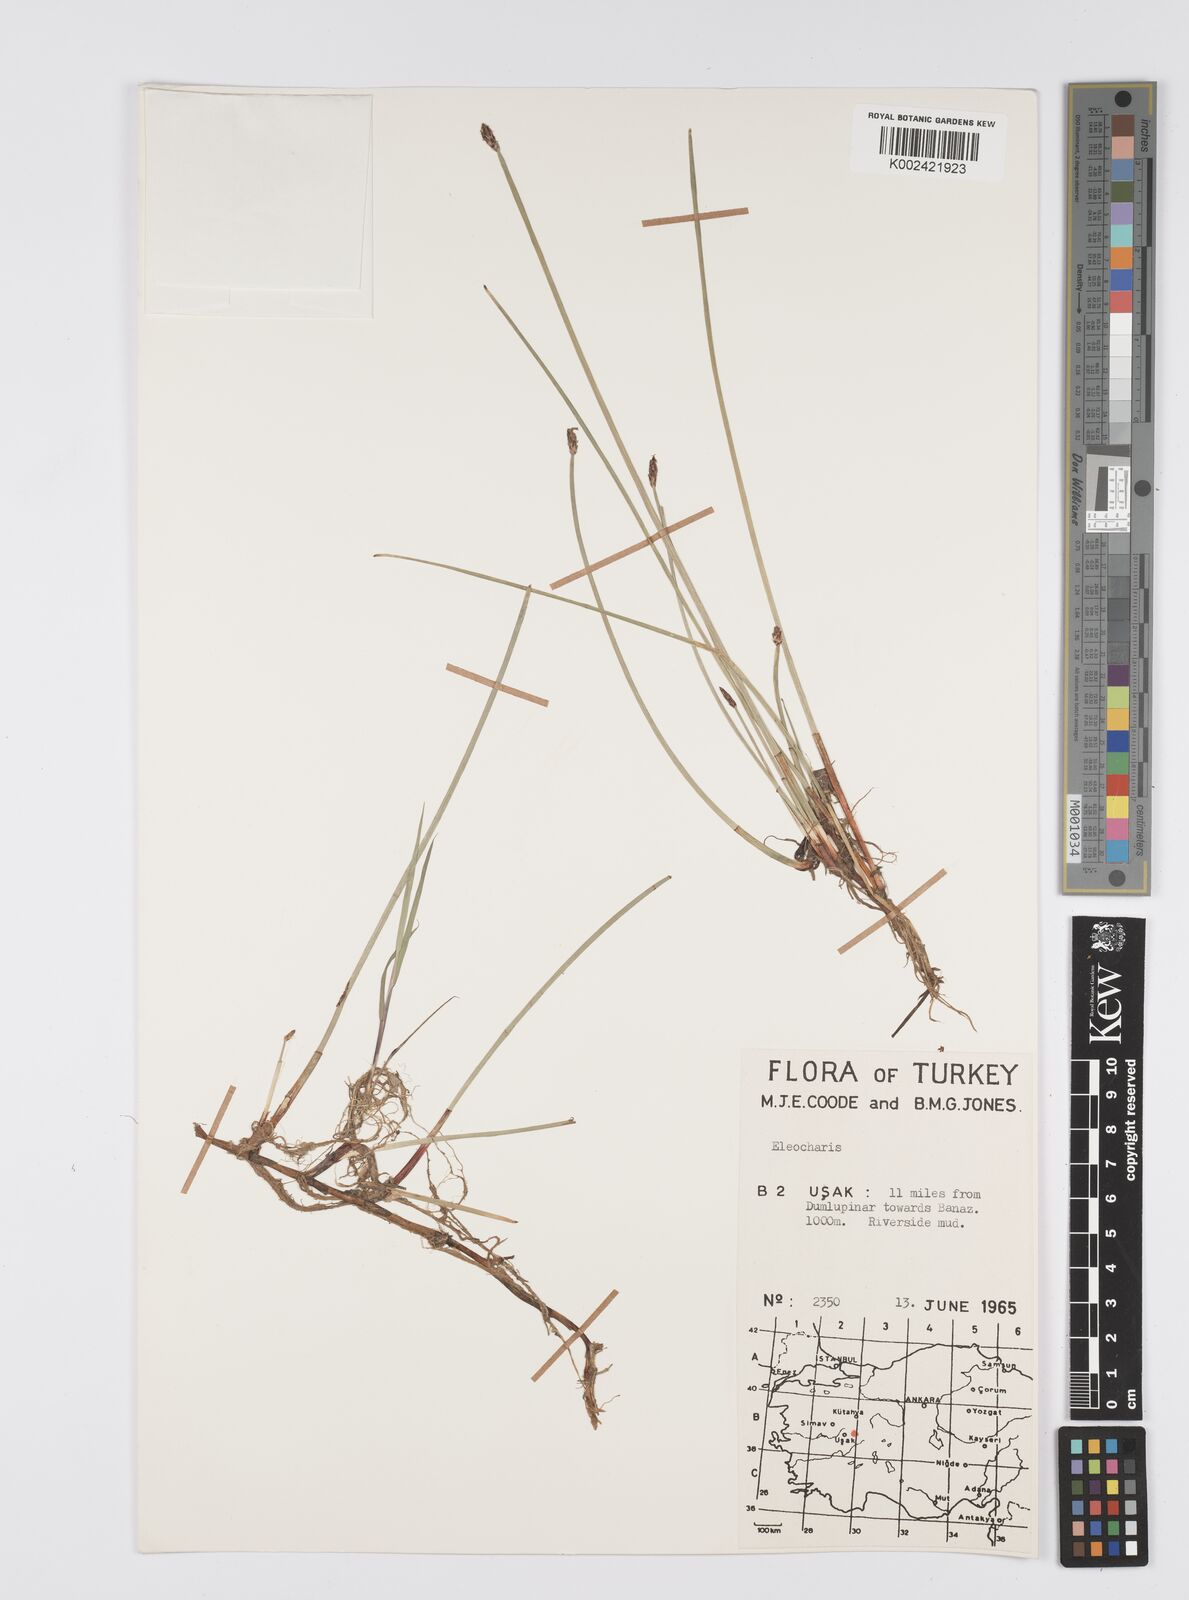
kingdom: Plantae
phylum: Tracheophyta
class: Liliopsida
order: Poales
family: Cyperaceae
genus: Eleocharis
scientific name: Eleocharis
